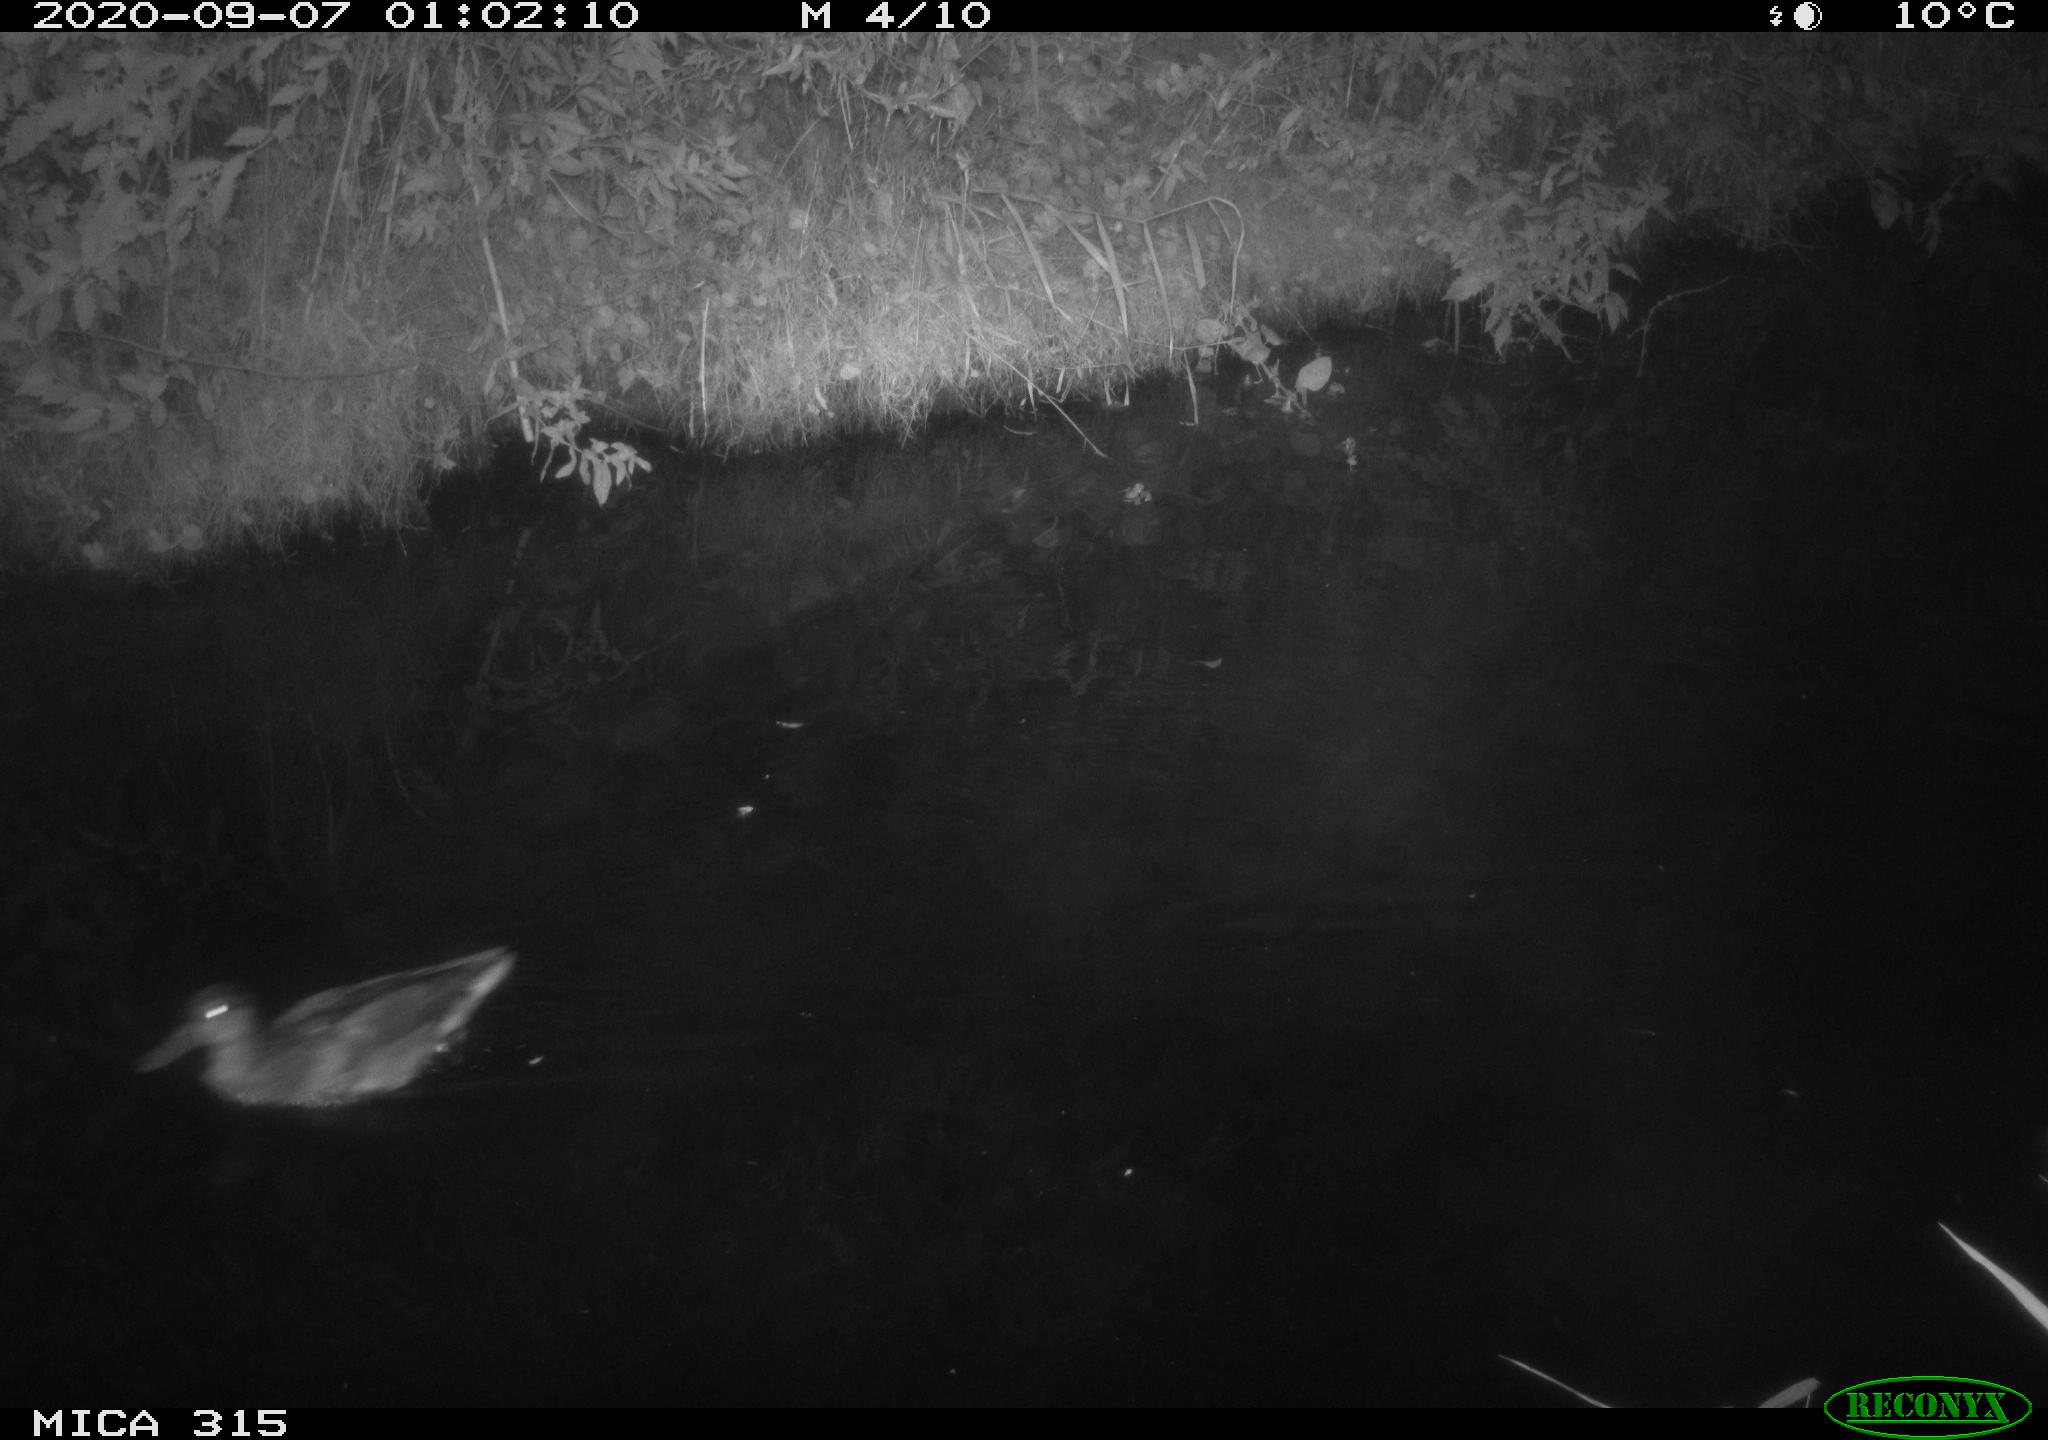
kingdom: Animalia
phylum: Chordata
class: Aves
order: Anseriformes
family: Anatidae
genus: Anas
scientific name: Anas platyrhynchos
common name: Mallard
